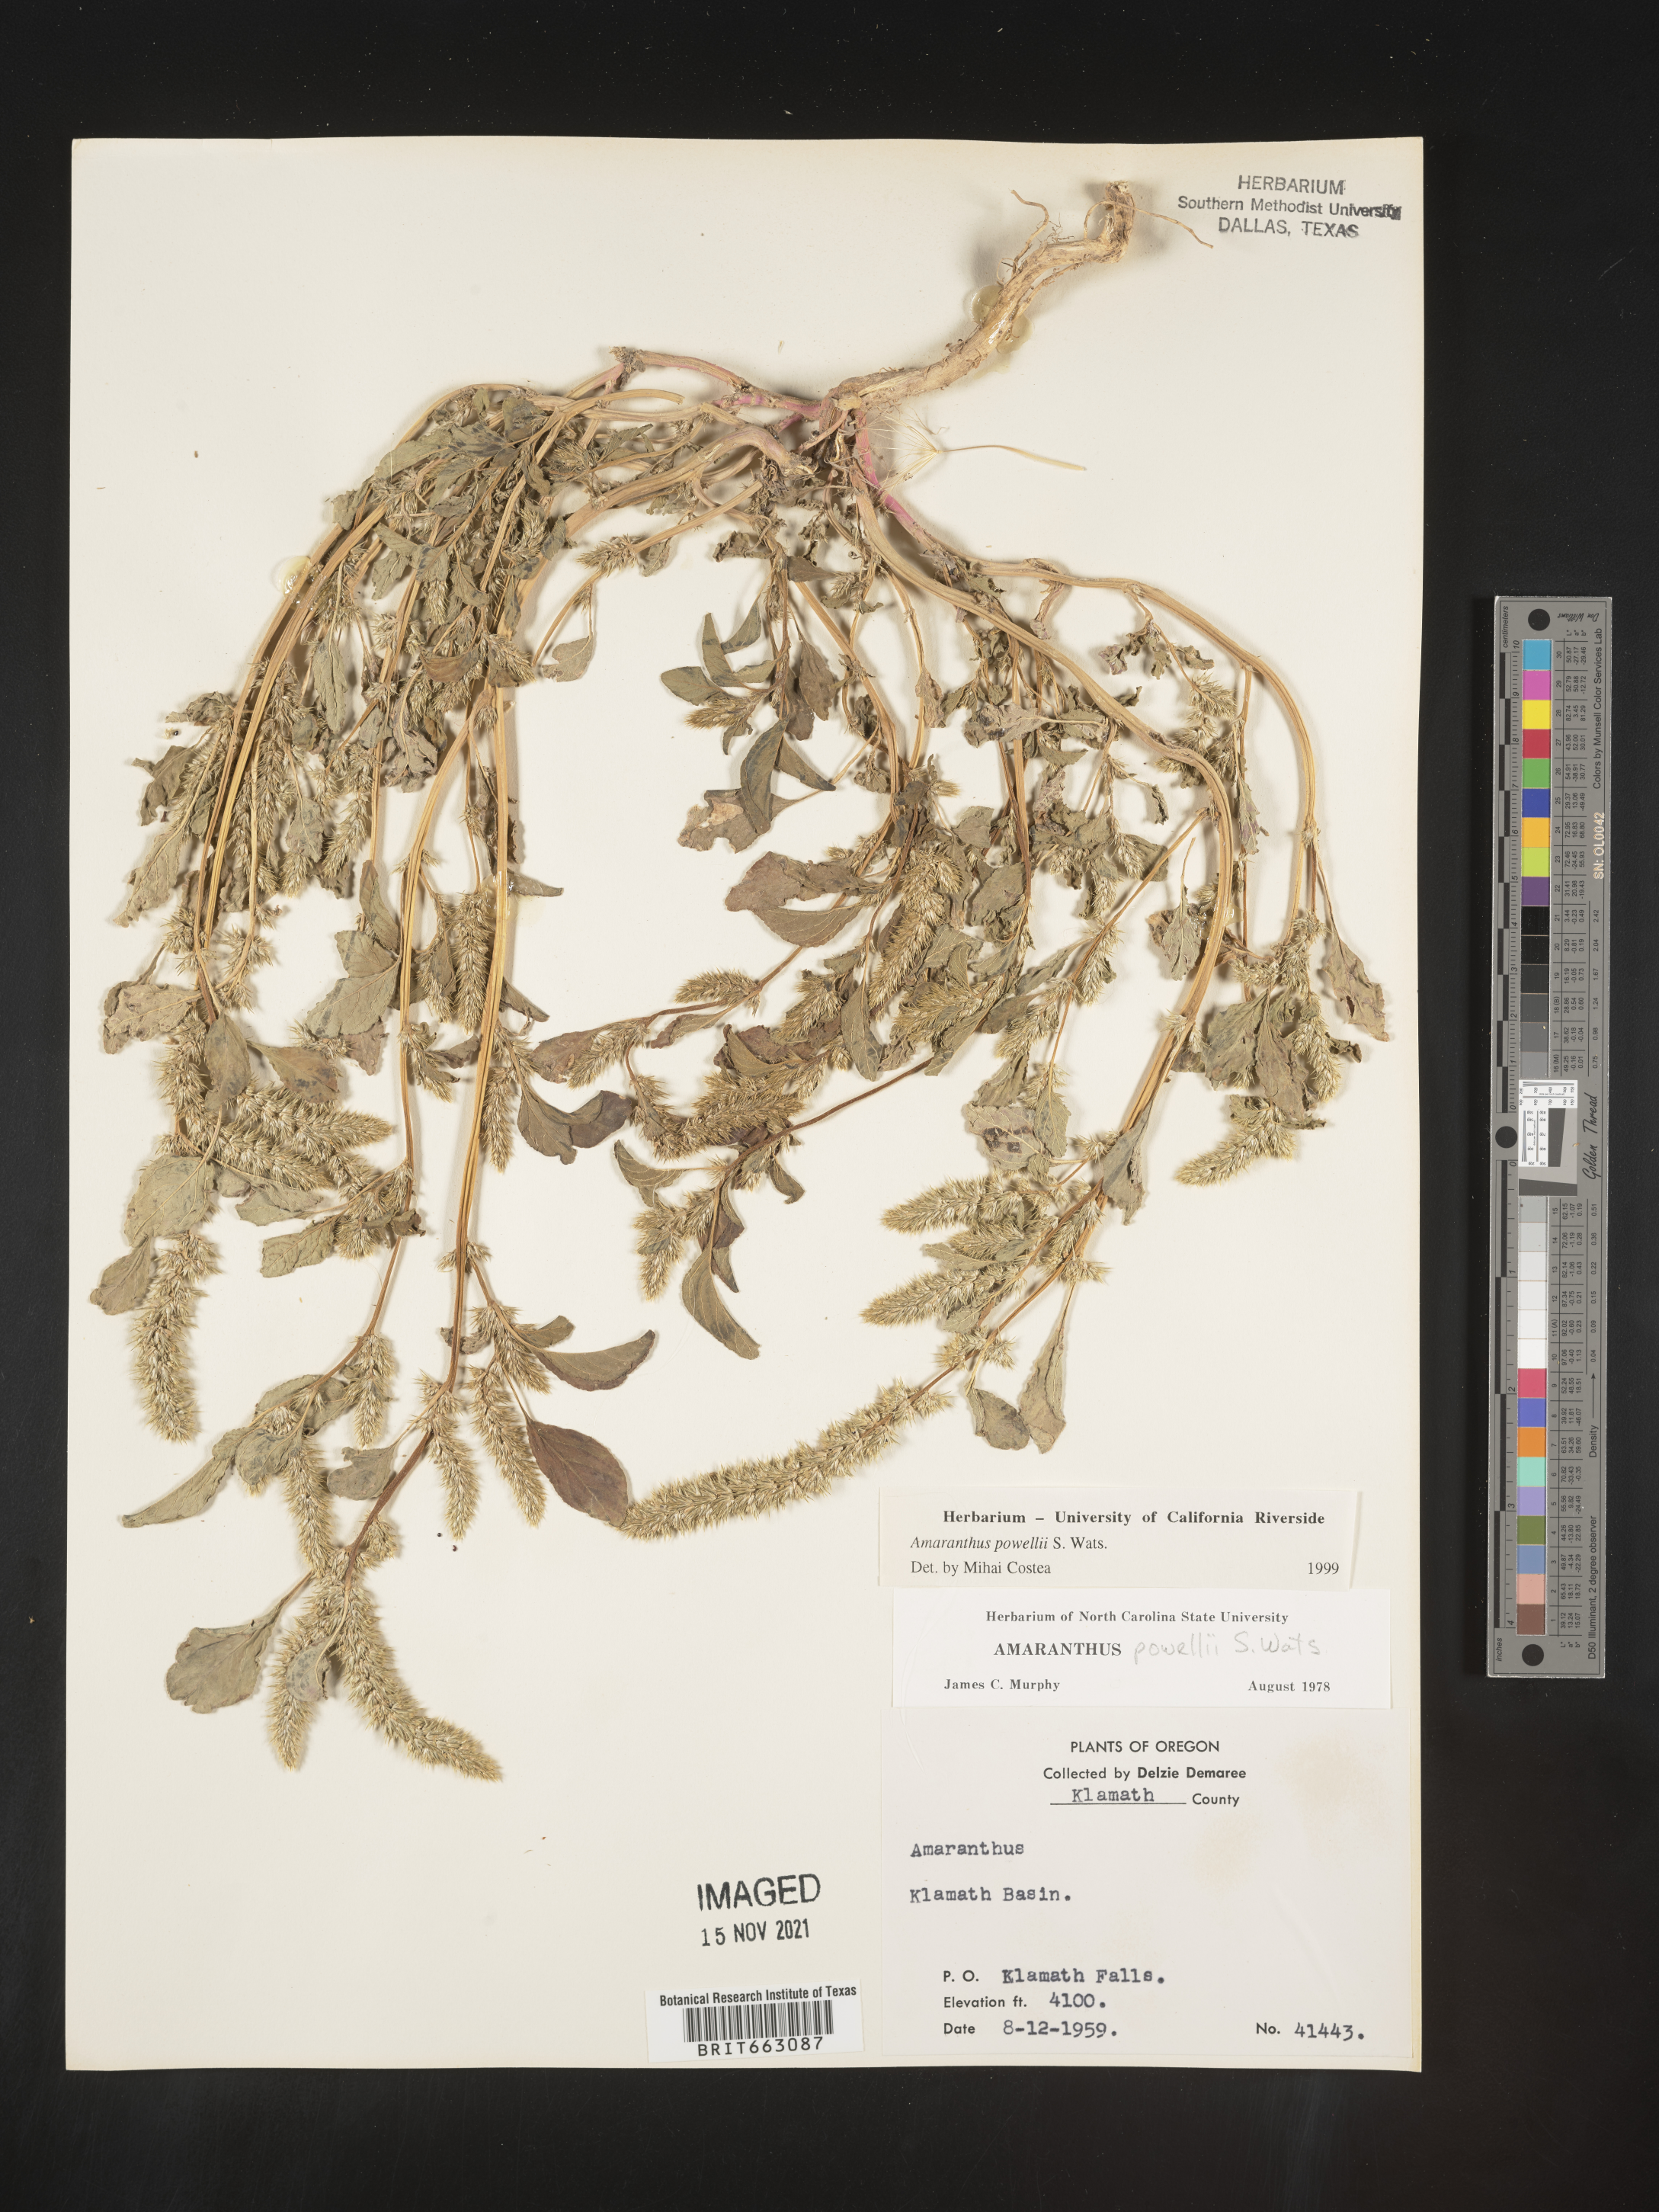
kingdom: Plantae
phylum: Tracheophyta
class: Magnoliopsida
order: Caryophyllales
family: Amaranthaceae
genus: Amaranthus
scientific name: Amaranthus powellii
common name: Powell's amaranth
